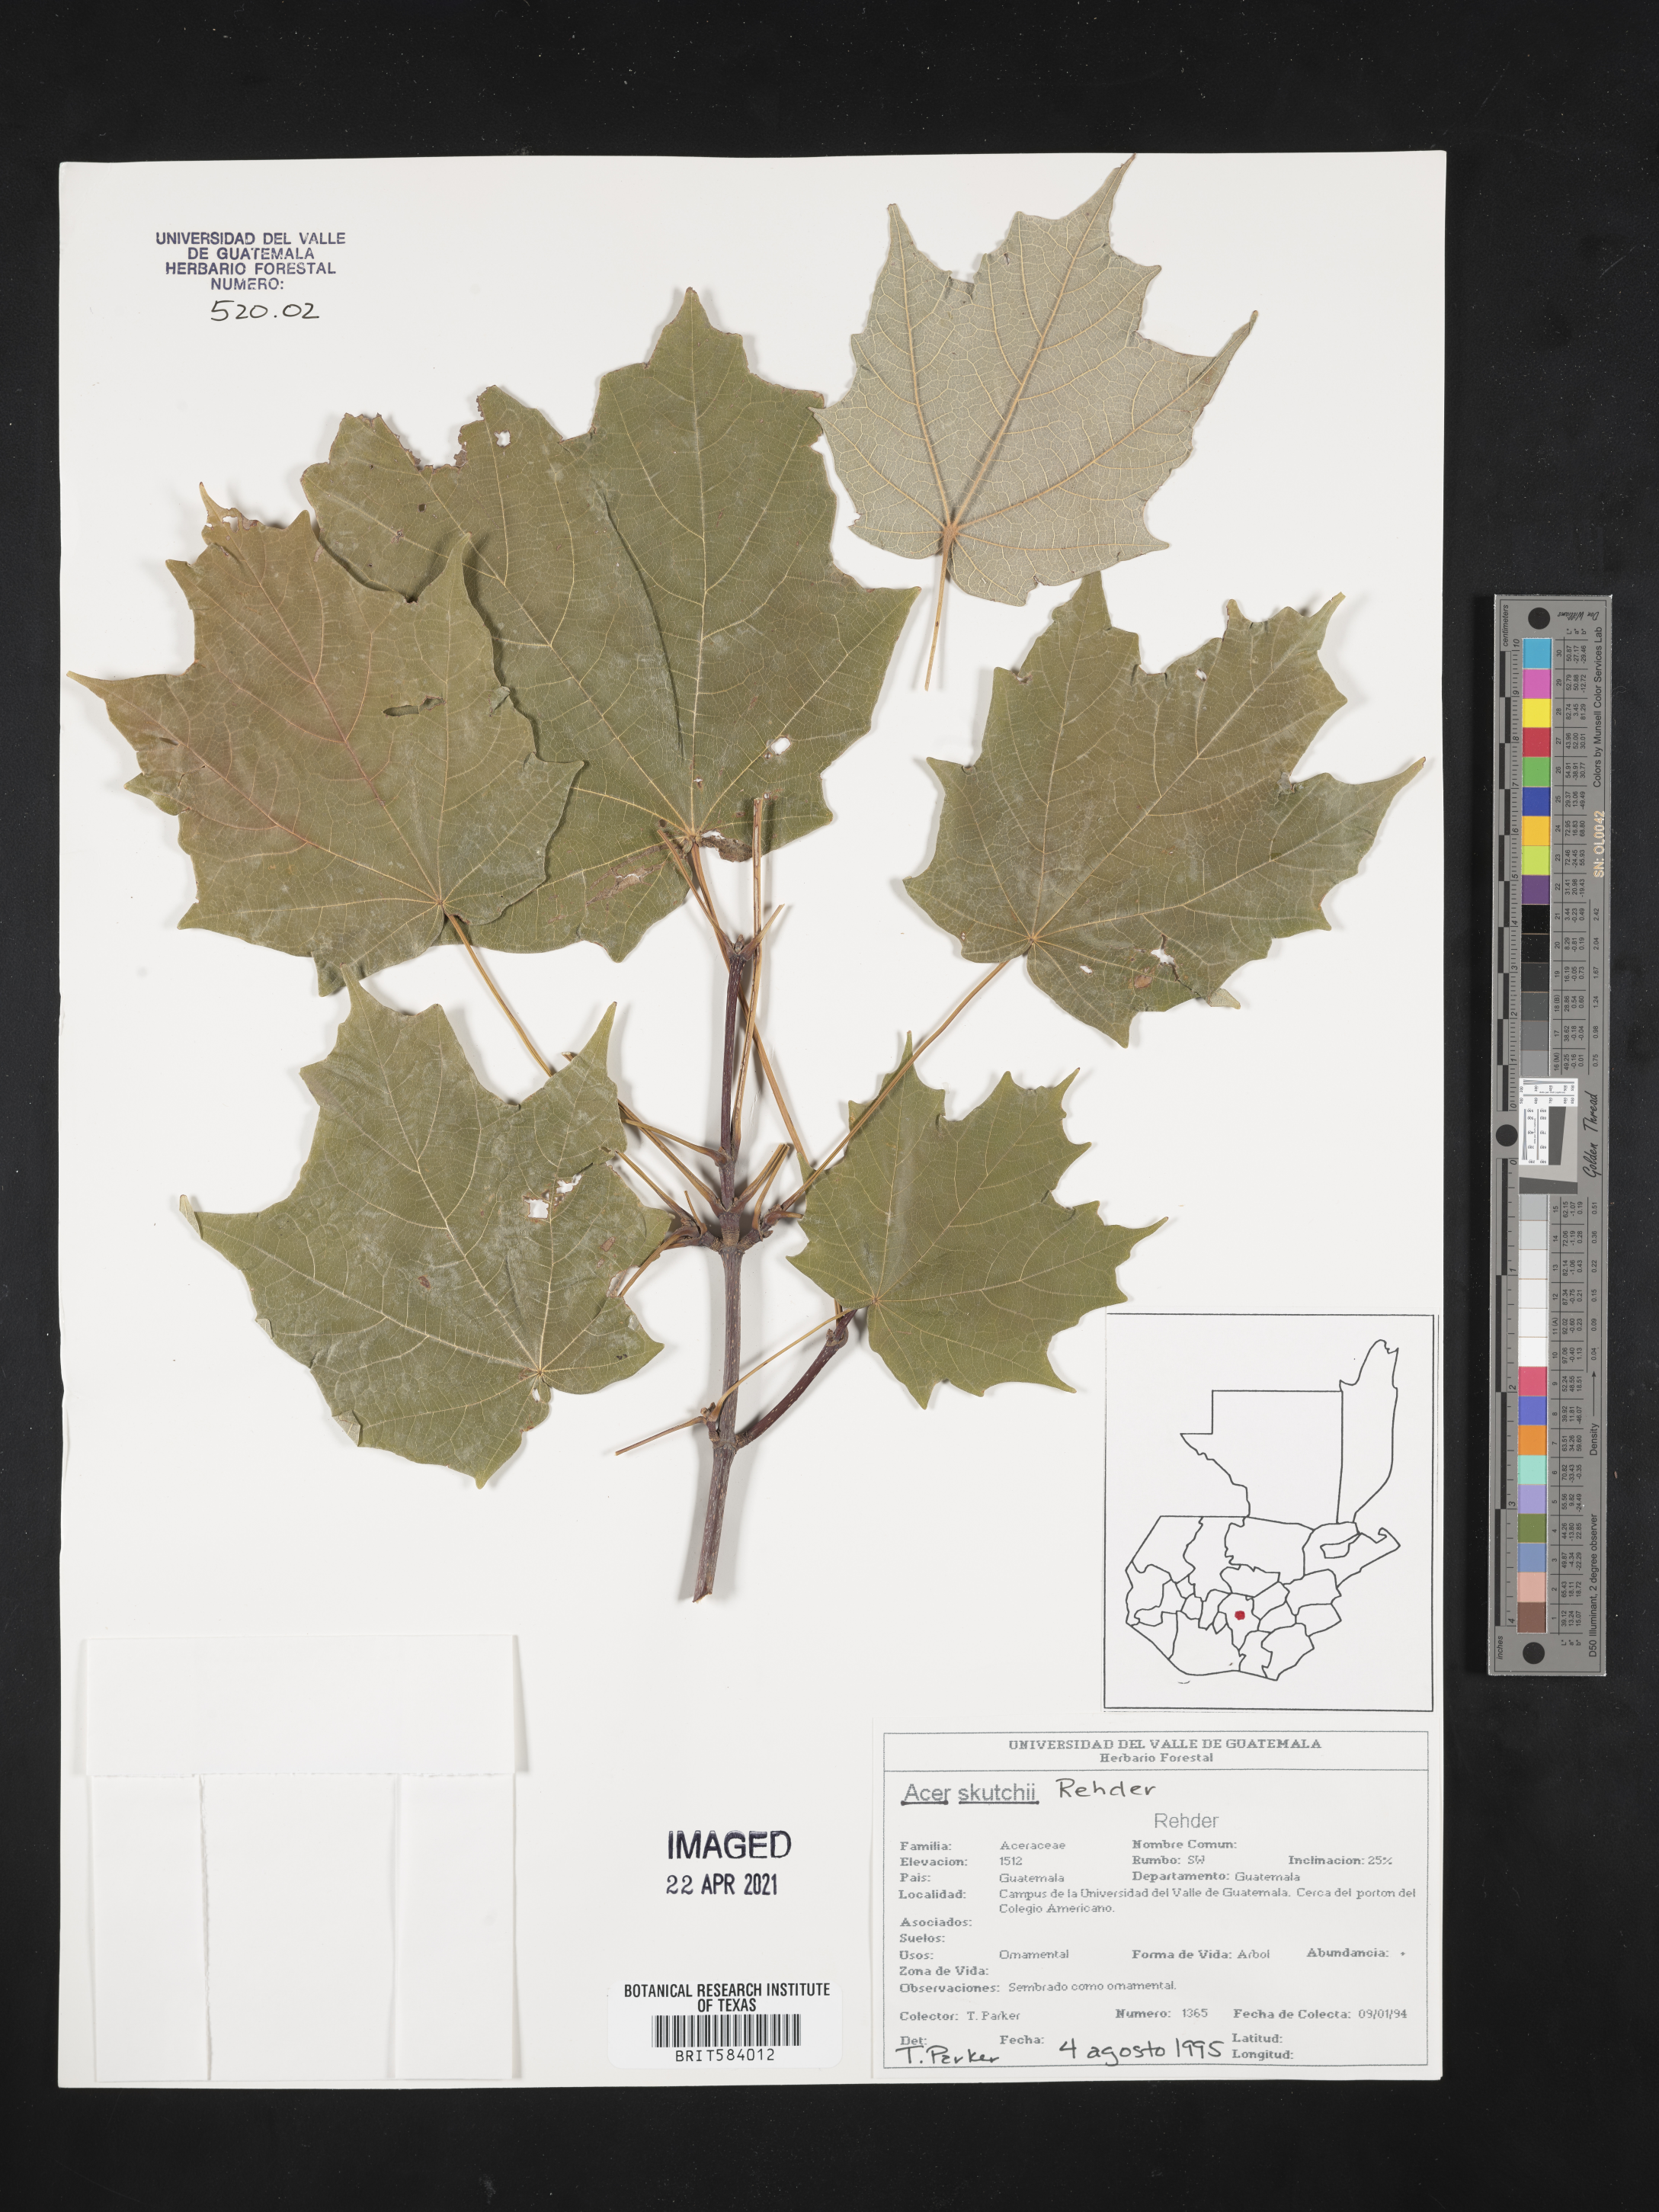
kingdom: Plantae
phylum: Tracheophyta
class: Magnoliopsida
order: Sapindales
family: Sapindaceae
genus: Acer
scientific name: Acer skutchii
